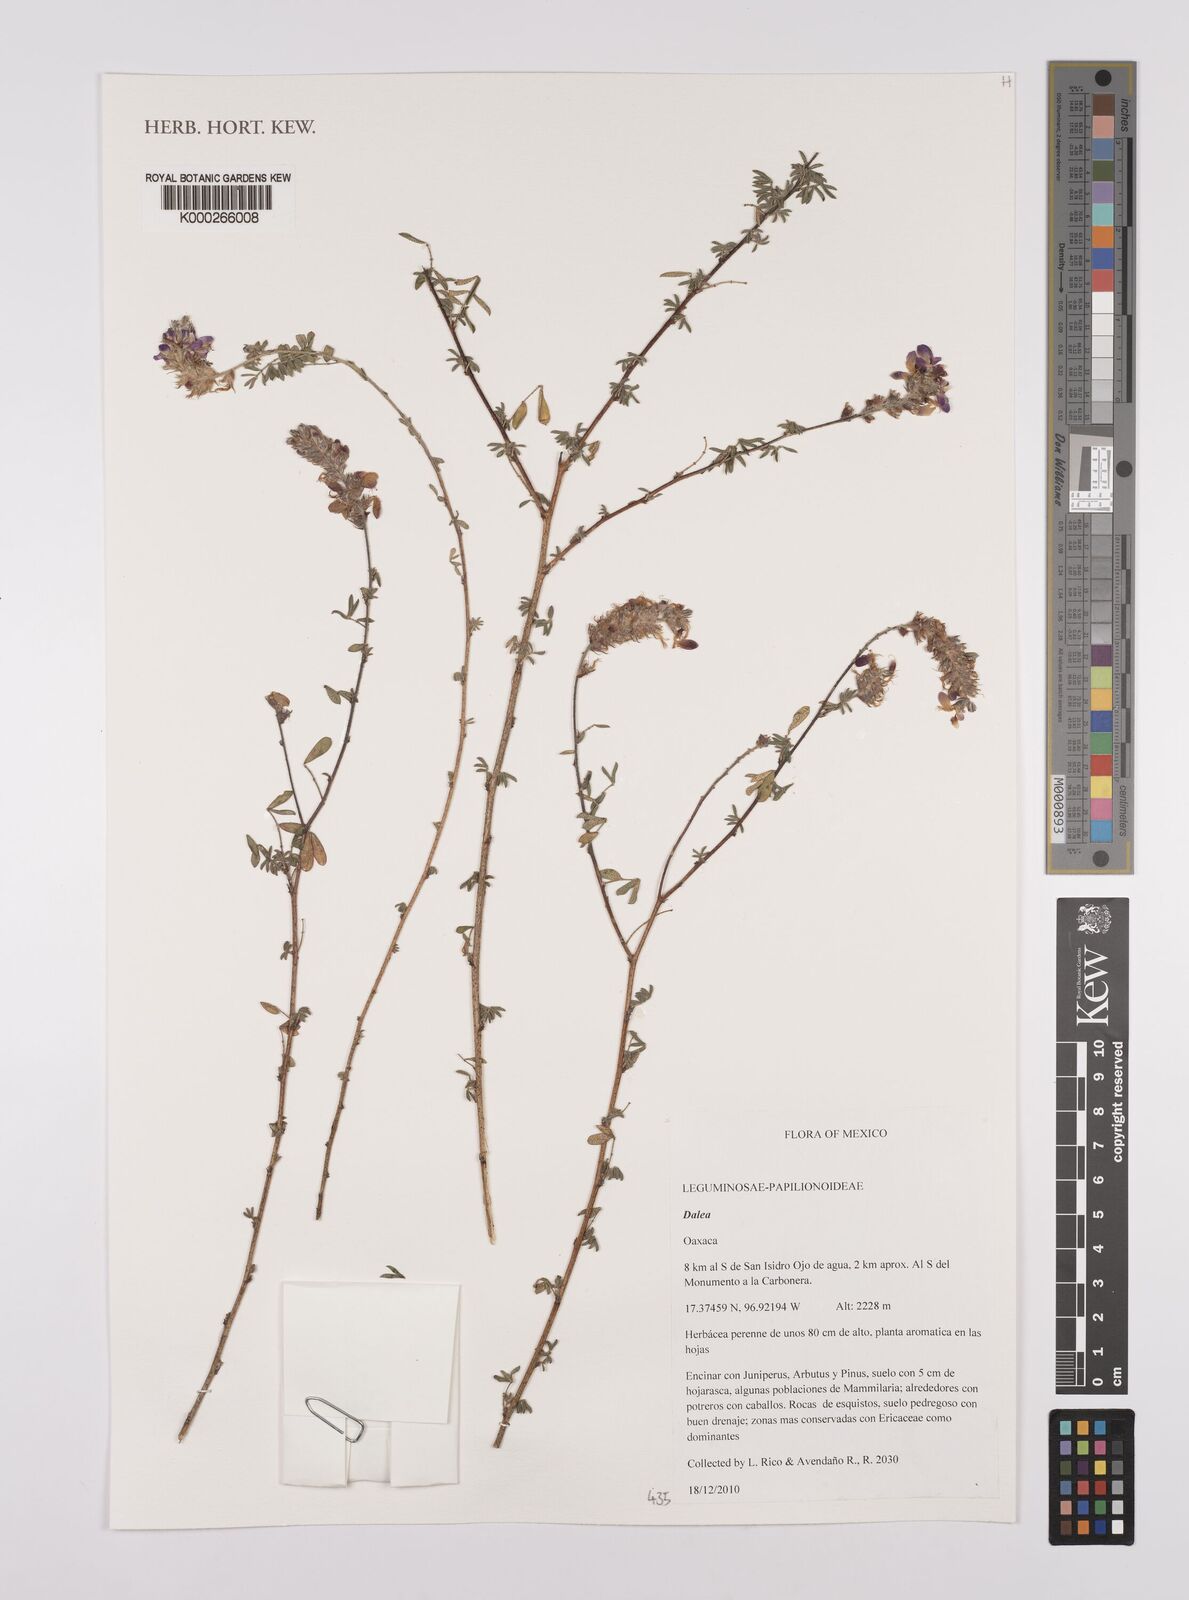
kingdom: Plantae
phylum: Tracheophyta
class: Magnoliopsida
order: Fabales
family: Fabaceae
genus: Dalea
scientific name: Dalea
